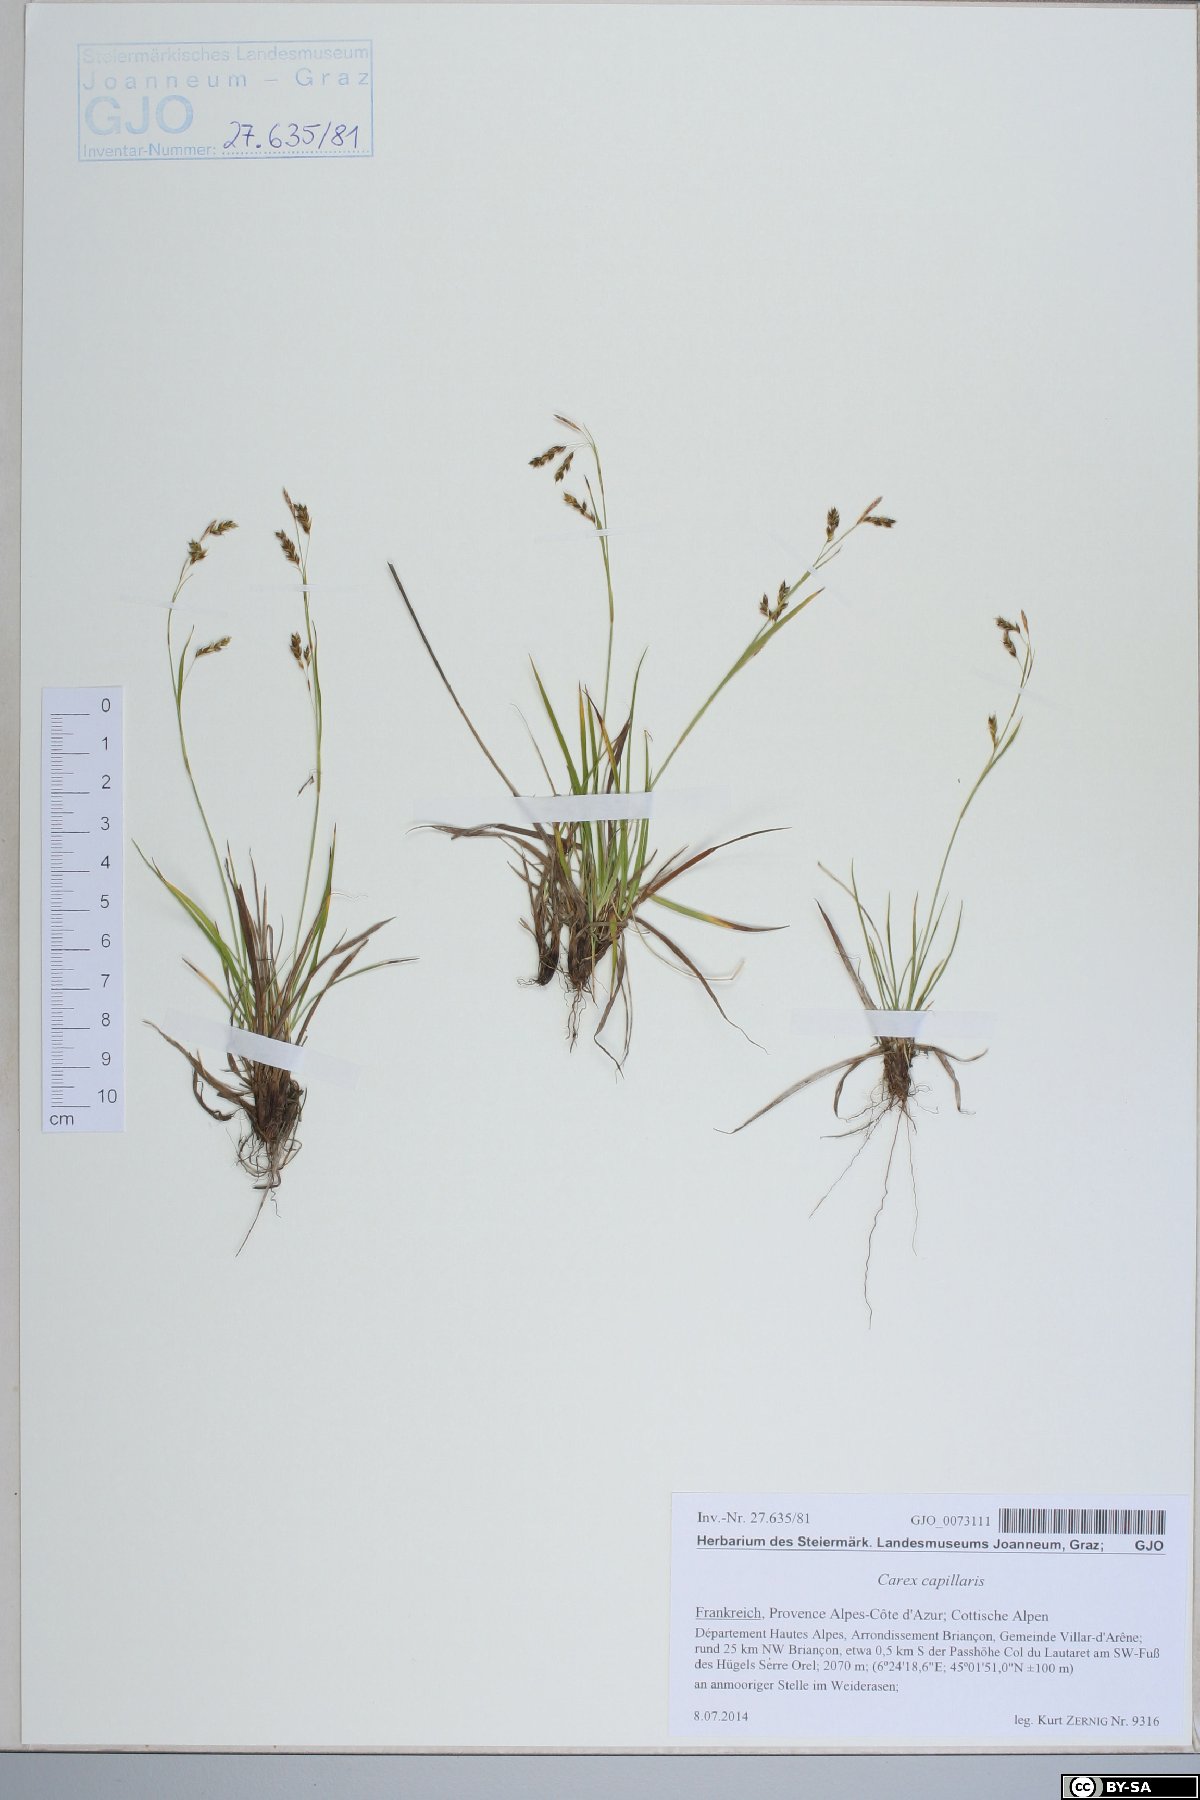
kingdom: Plantae
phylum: Tracheophyta
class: Liliopsida
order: Poales
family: Cyperaceae
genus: Carex
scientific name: Carex capillaris
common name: Hair sedge
